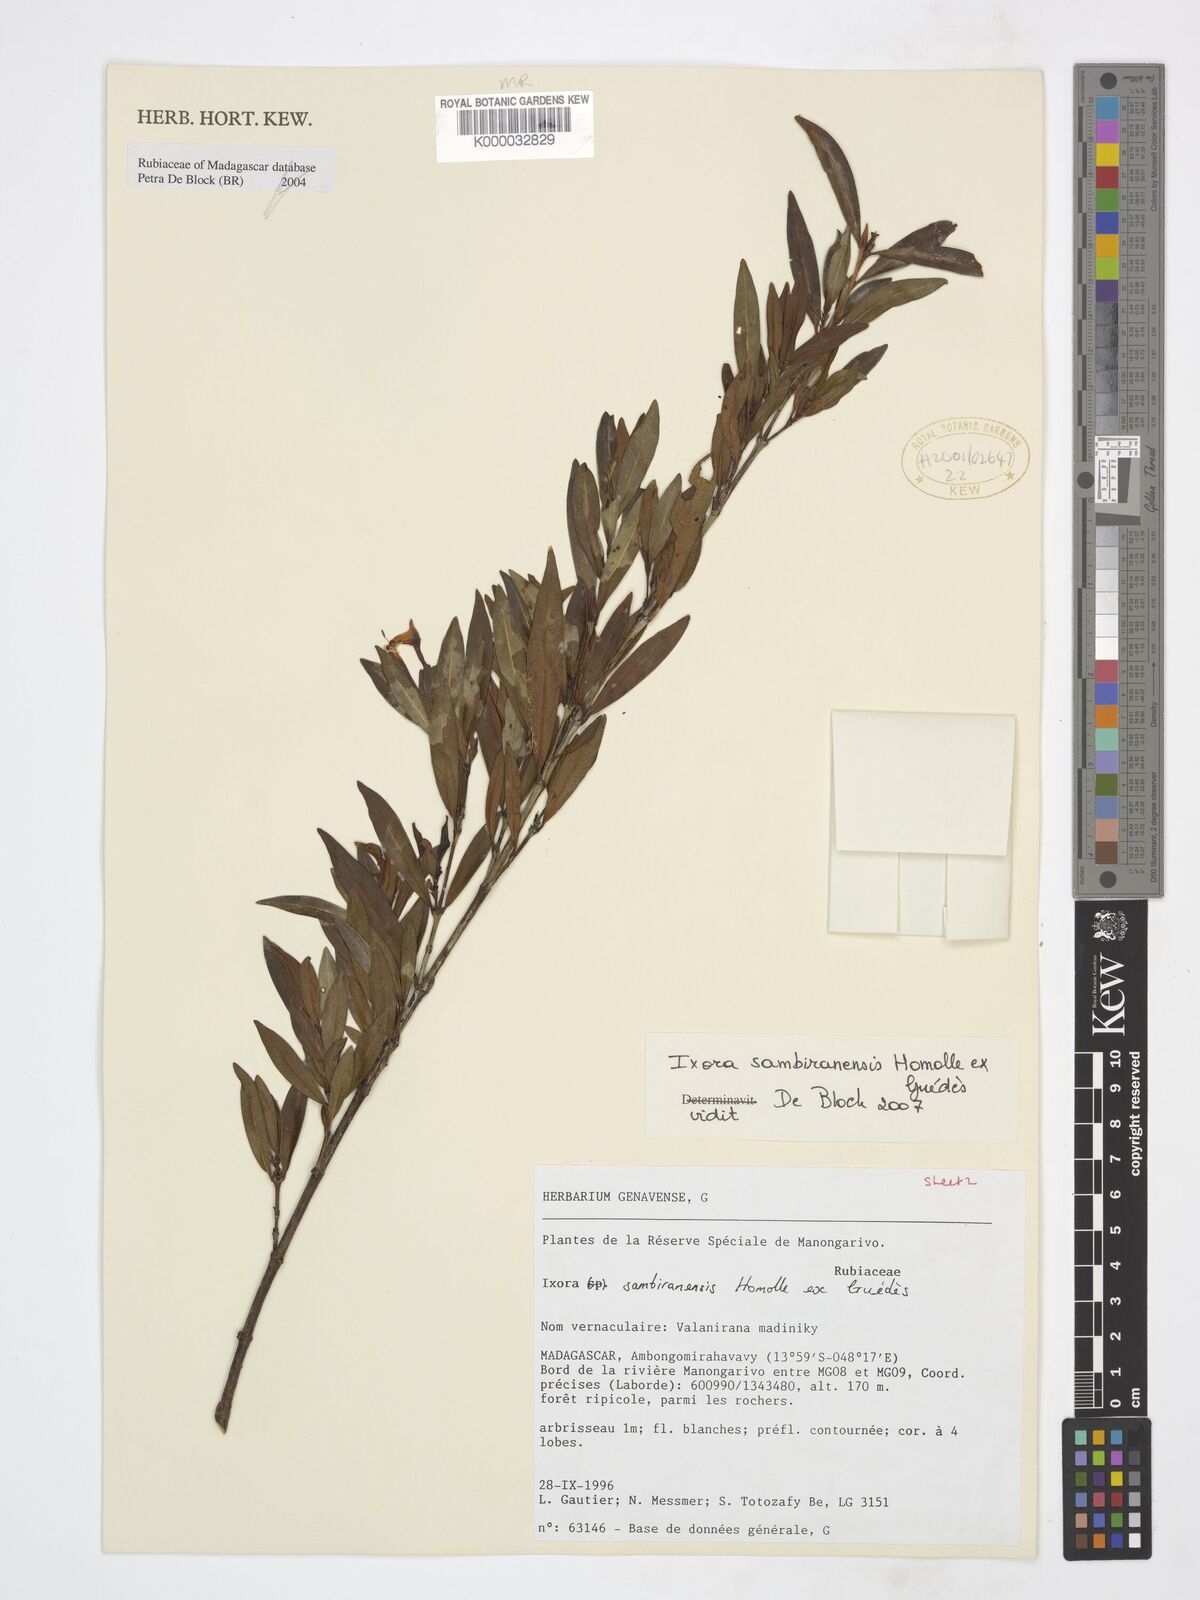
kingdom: Plantae
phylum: Tracheophyta
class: Magnoliopsida
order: Gentianales
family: Rubiaceae
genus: Ixora
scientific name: Ixora sambiranensis
